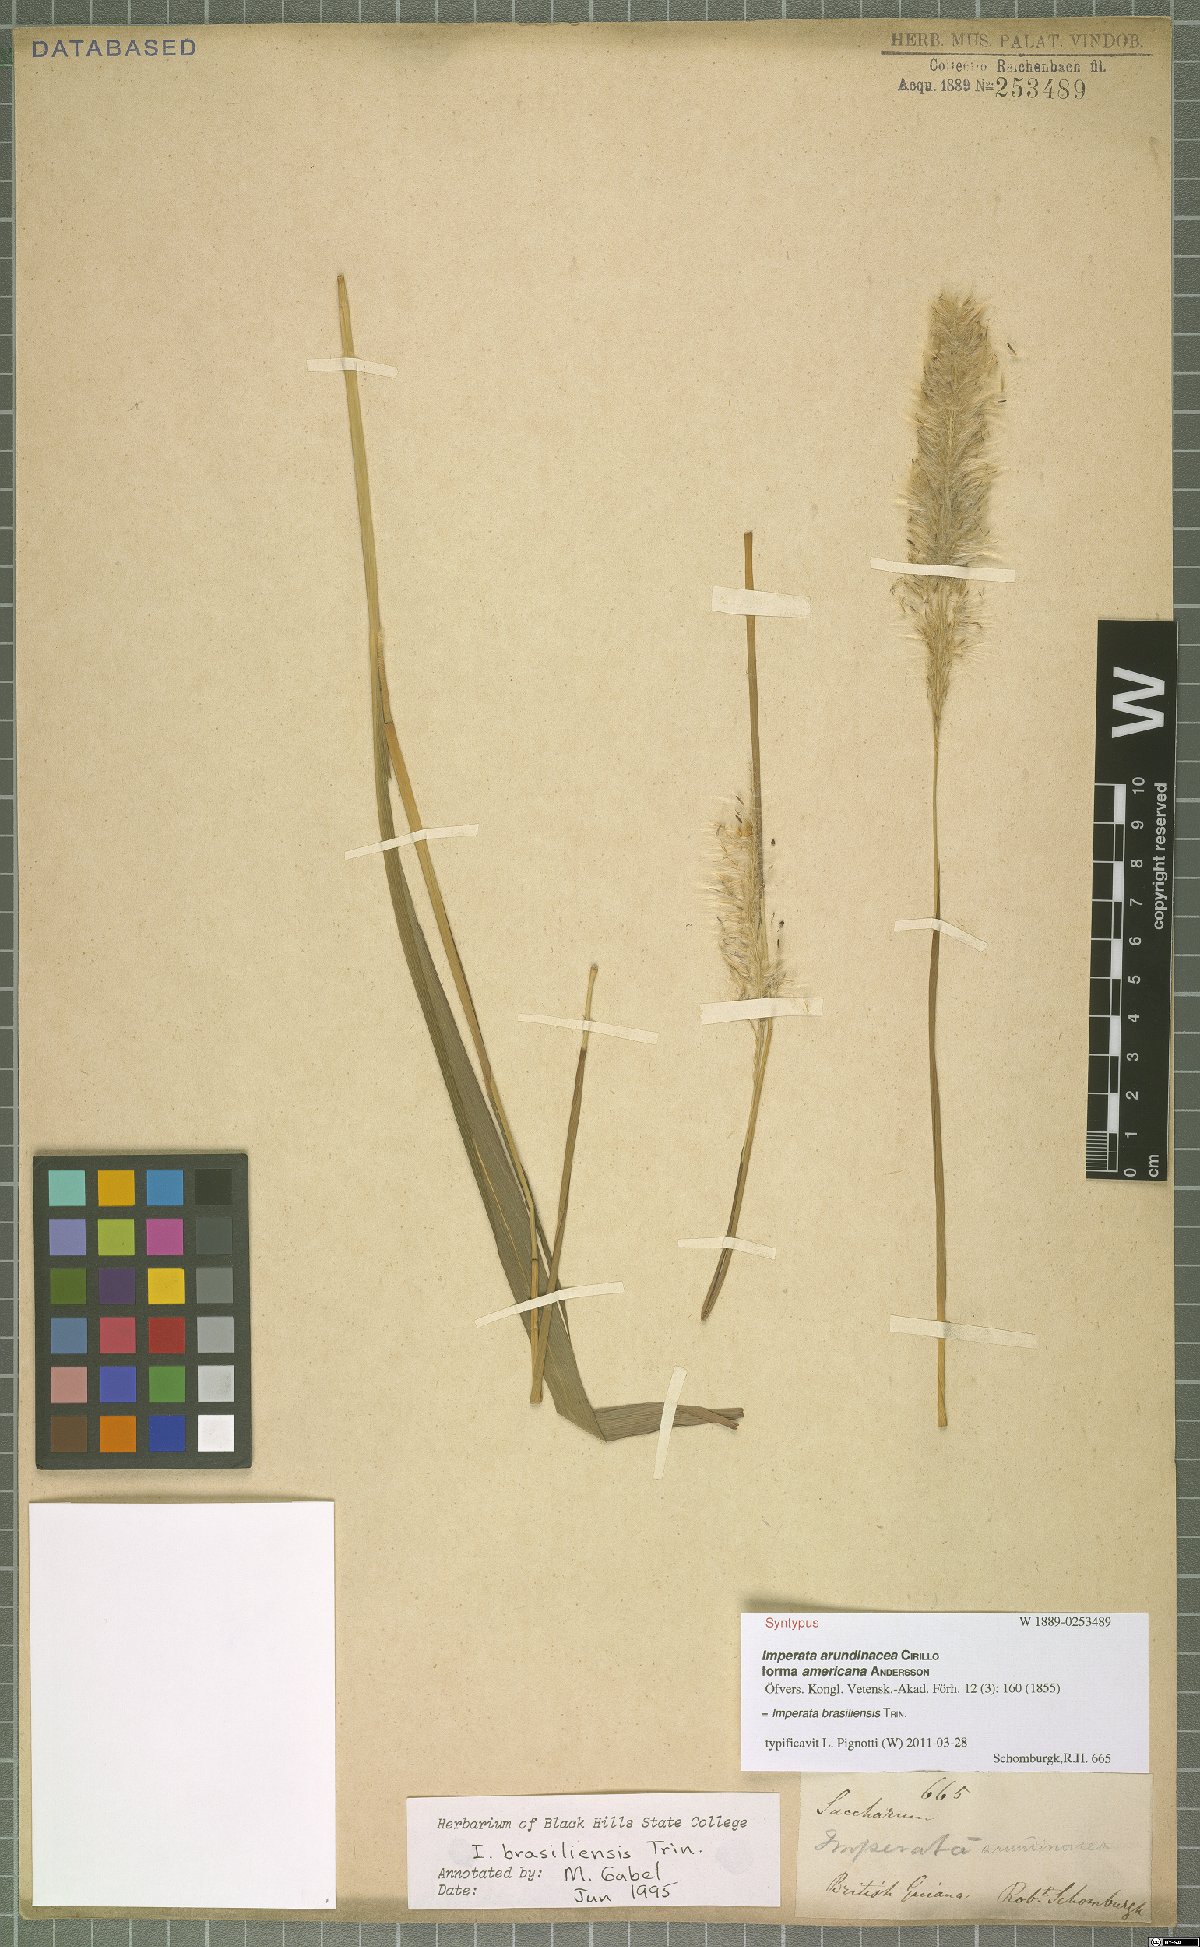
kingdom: Plantae
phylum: Tracheophyta
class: Liliopsida
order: Poales
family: Poaceae
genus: Imperata
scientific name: Imperata brasiliensis
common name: Brazilian satintail
